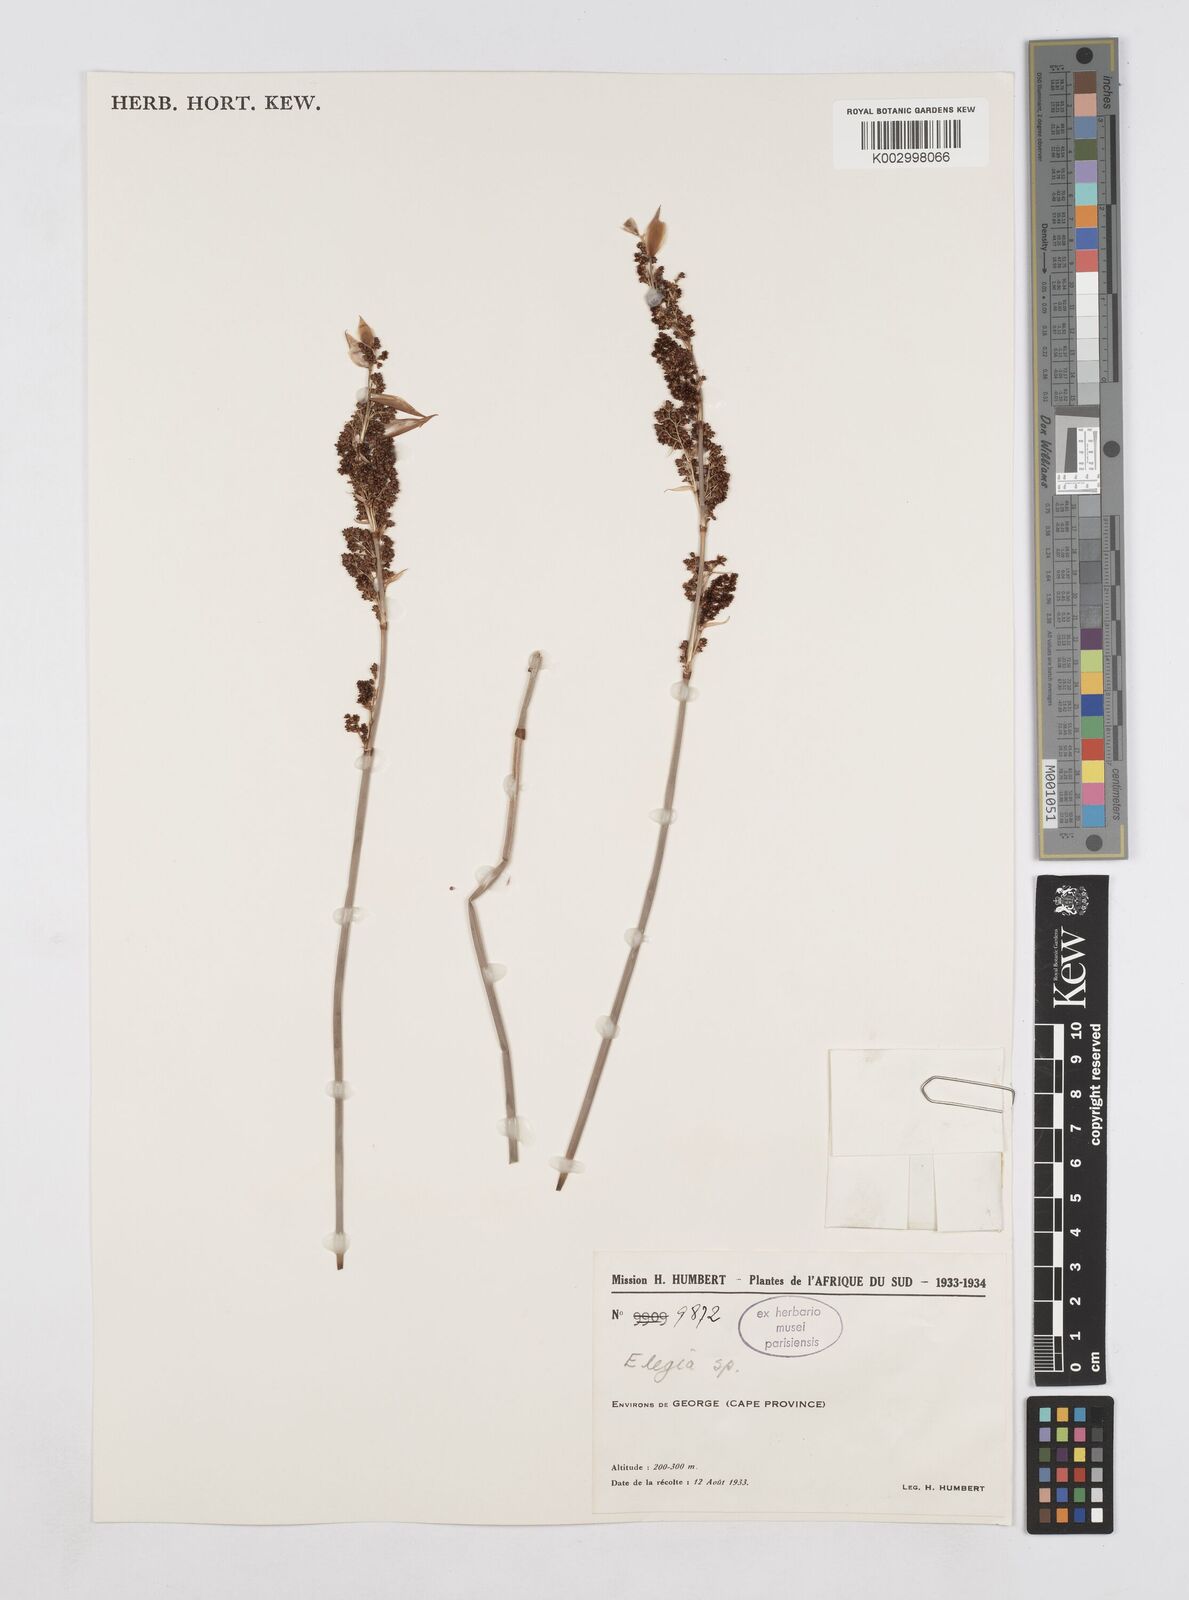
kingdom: Plantae
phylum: Tracheophyta
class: Liliopsida
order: Poales
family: Restionaceae
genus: Elegia
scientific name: Elegia
